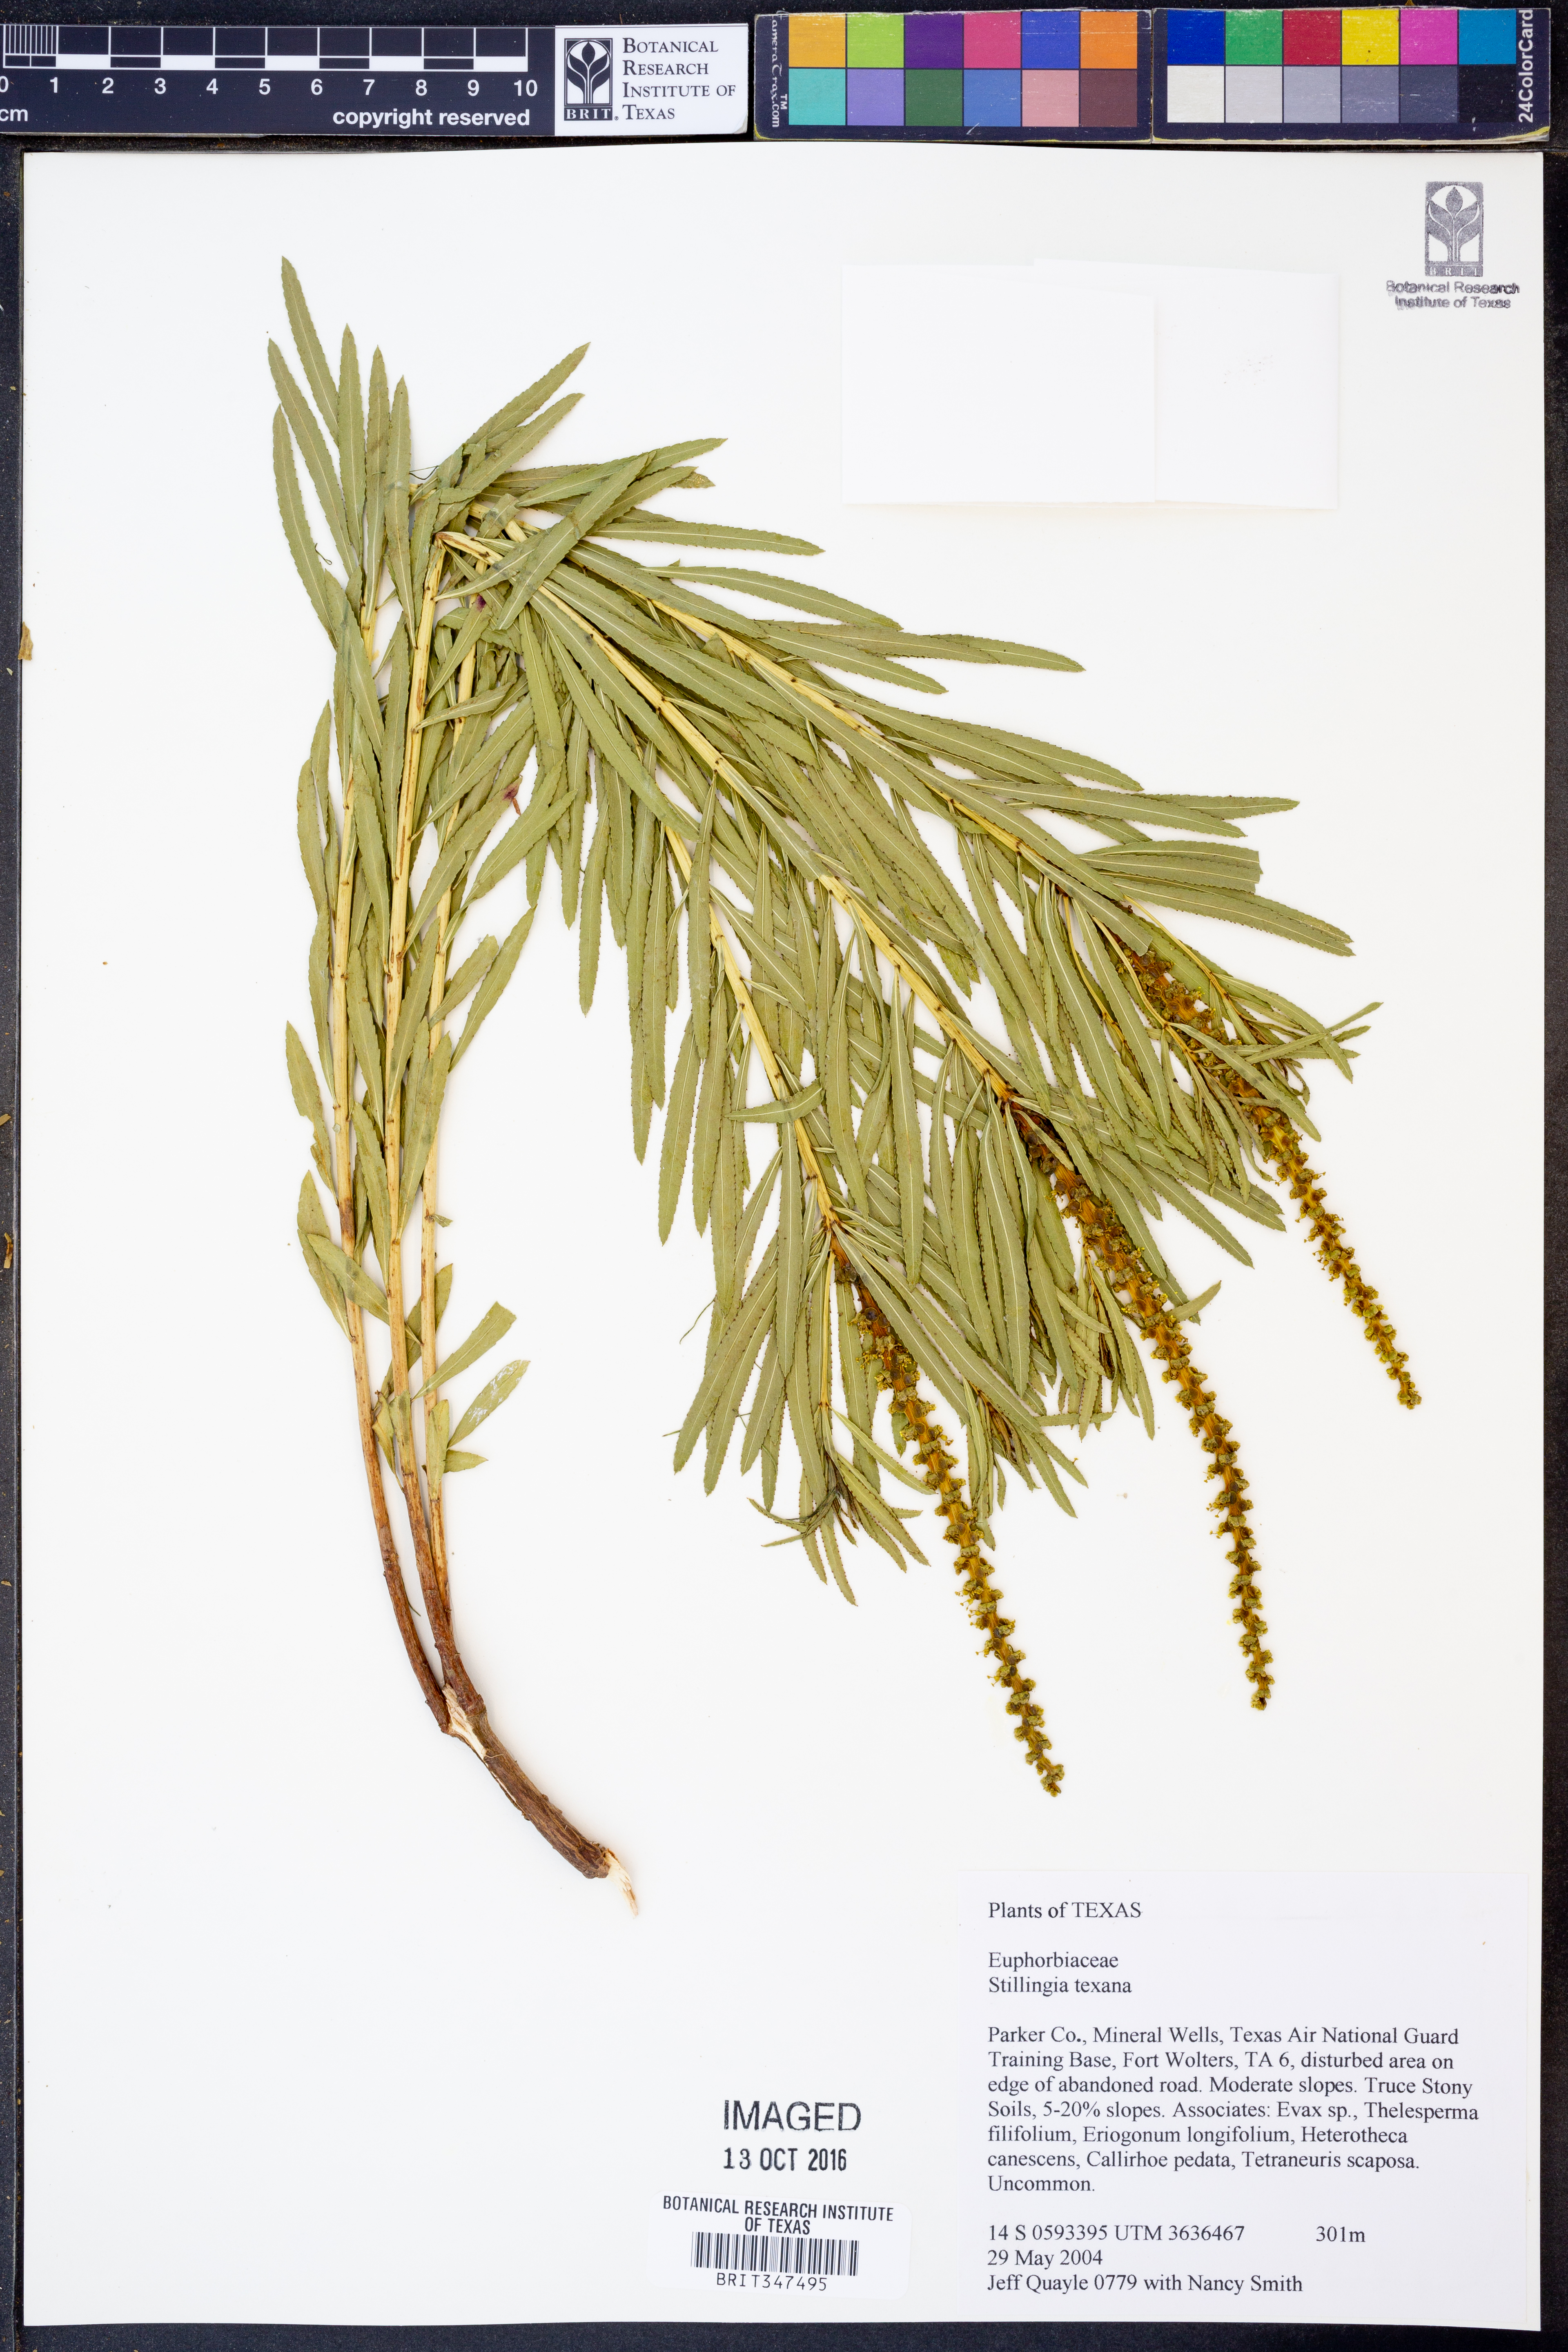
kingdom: Plantae
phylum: Tracheophyta
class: Magnoliopsida
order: Malpighiales
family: Euphorbiaceae
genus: Stillingia
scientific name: Stillingia texana
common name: Texas stillingia
